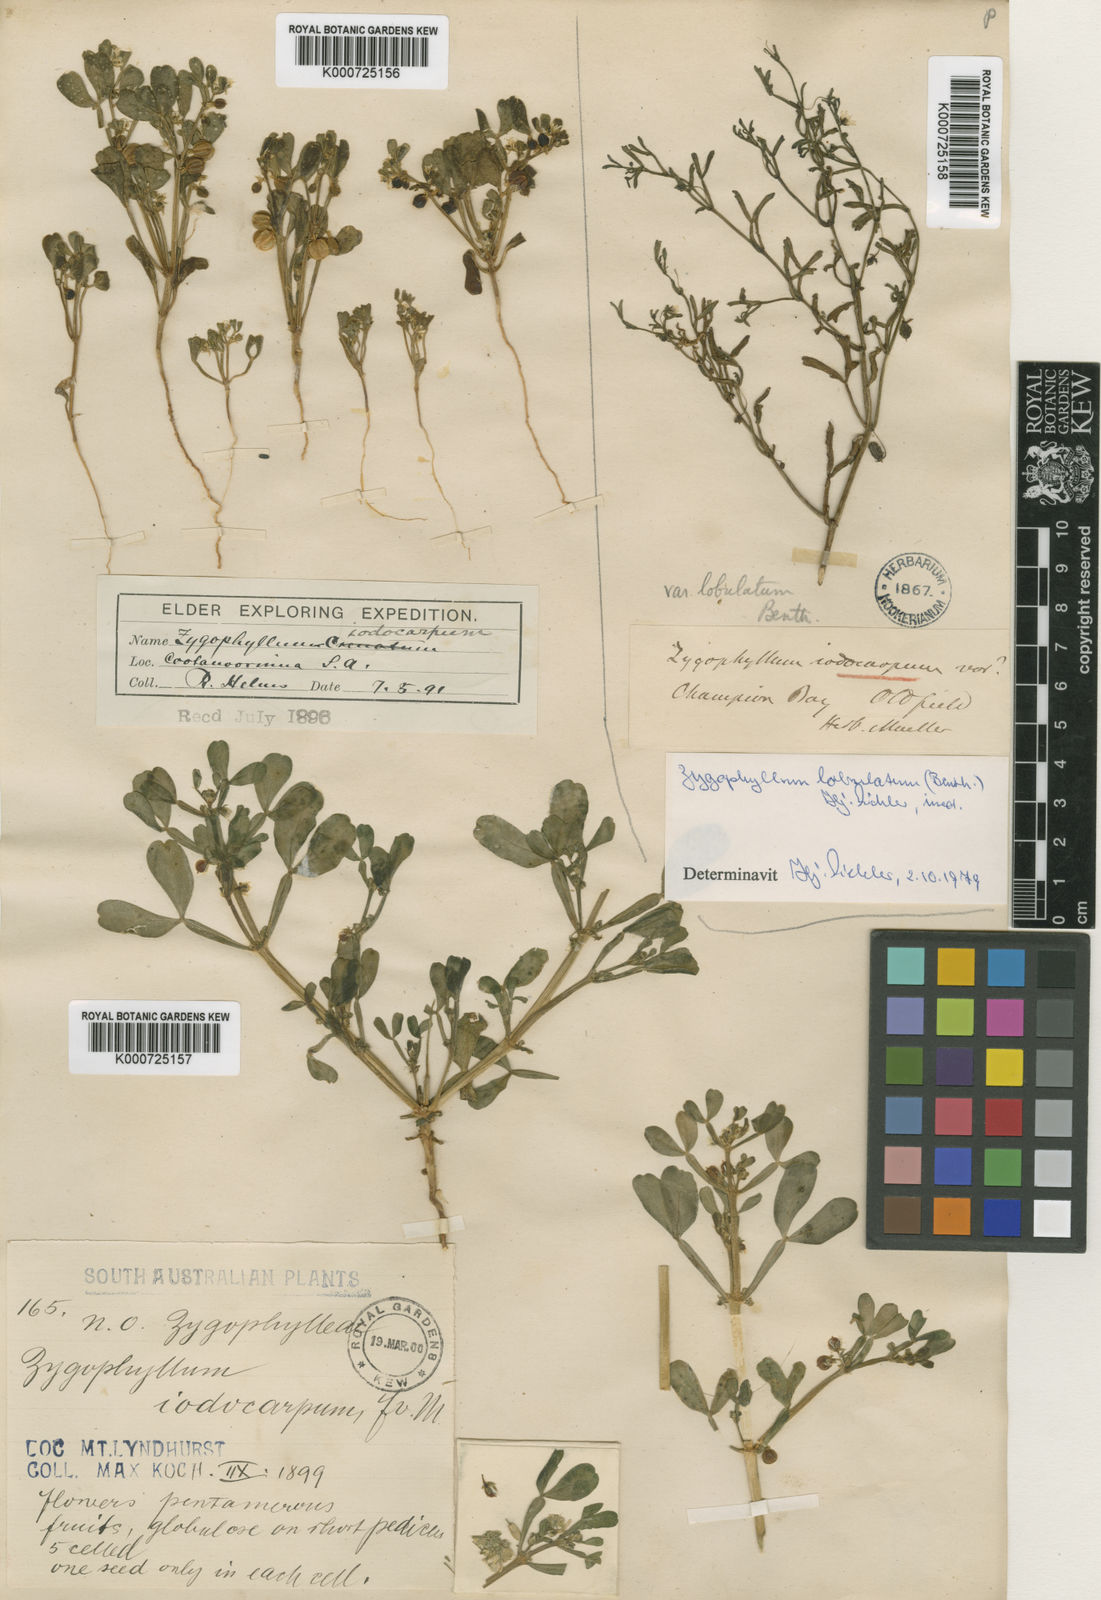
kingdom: Plantae
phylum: Tracheophyta
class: Magnoliopsida
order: Zygophyllales
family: Zygophyllaceae
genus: Roepera
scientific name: Roepera iodocarpa
